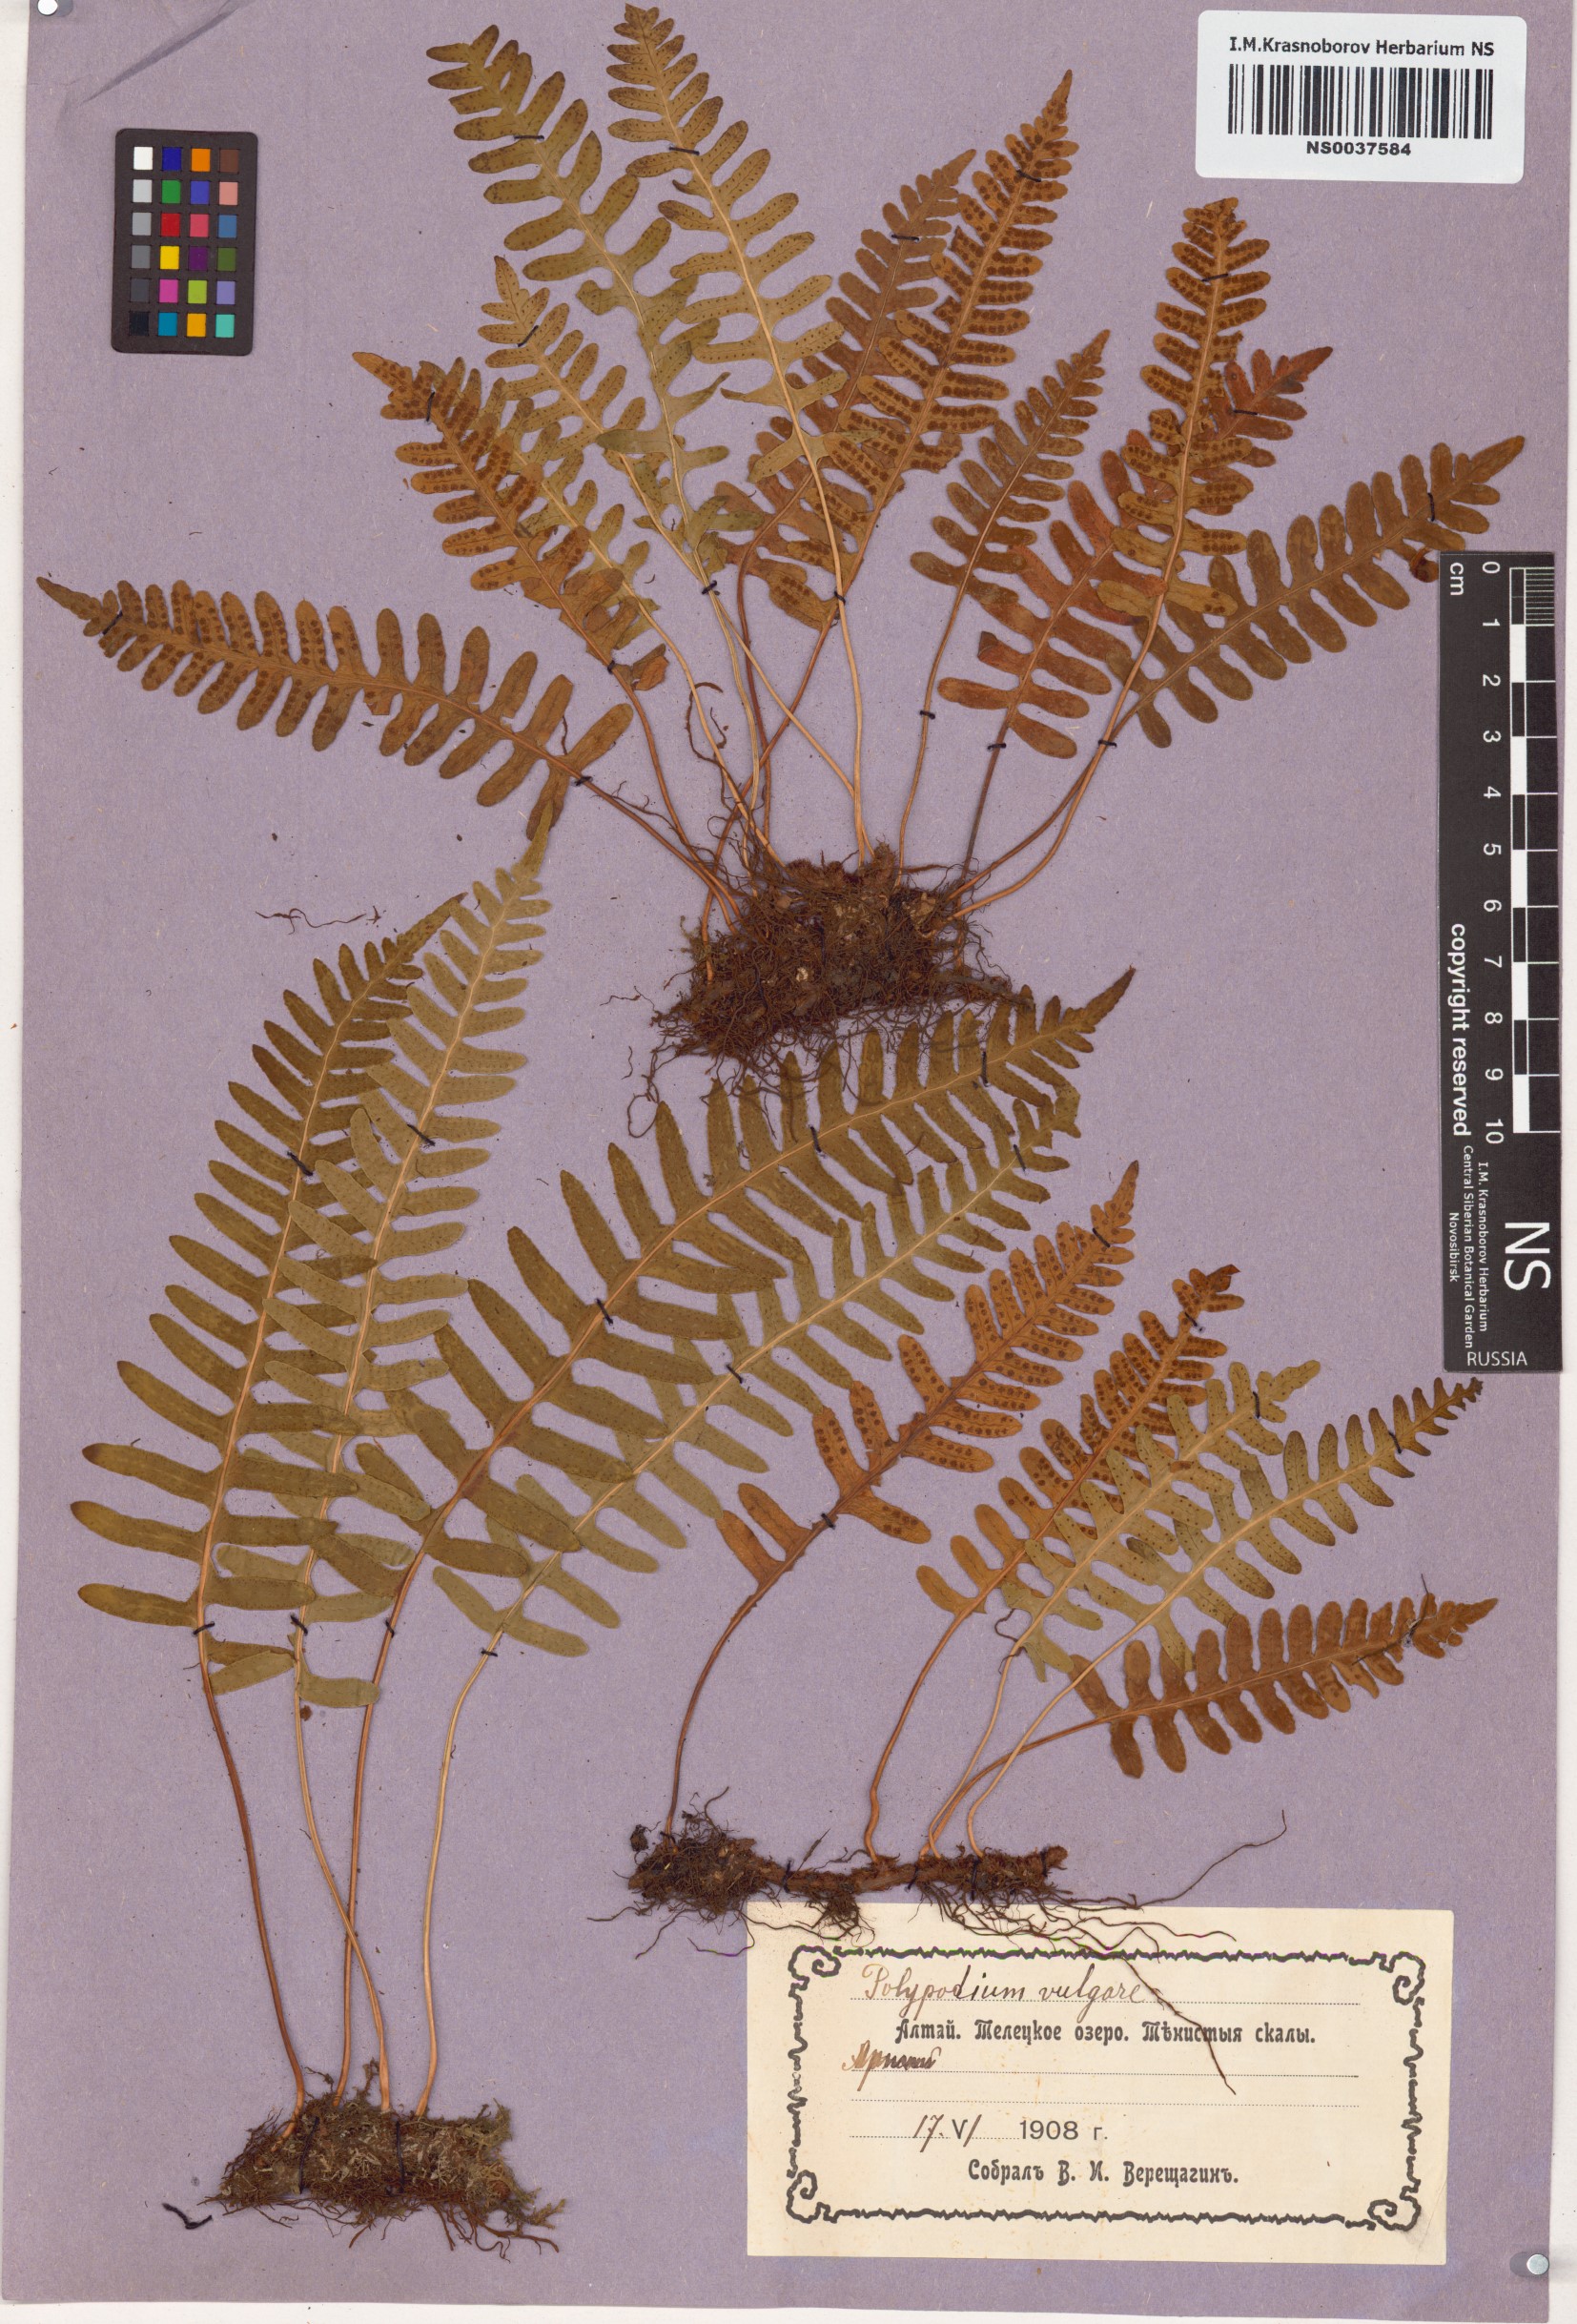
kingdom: Plantae
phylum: Tracheophyta
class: Polypodiopsida
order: Polypodiales
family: Polypodiaceae
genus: Polypodium
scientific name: Polypodium vulgare
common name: Common polypody
